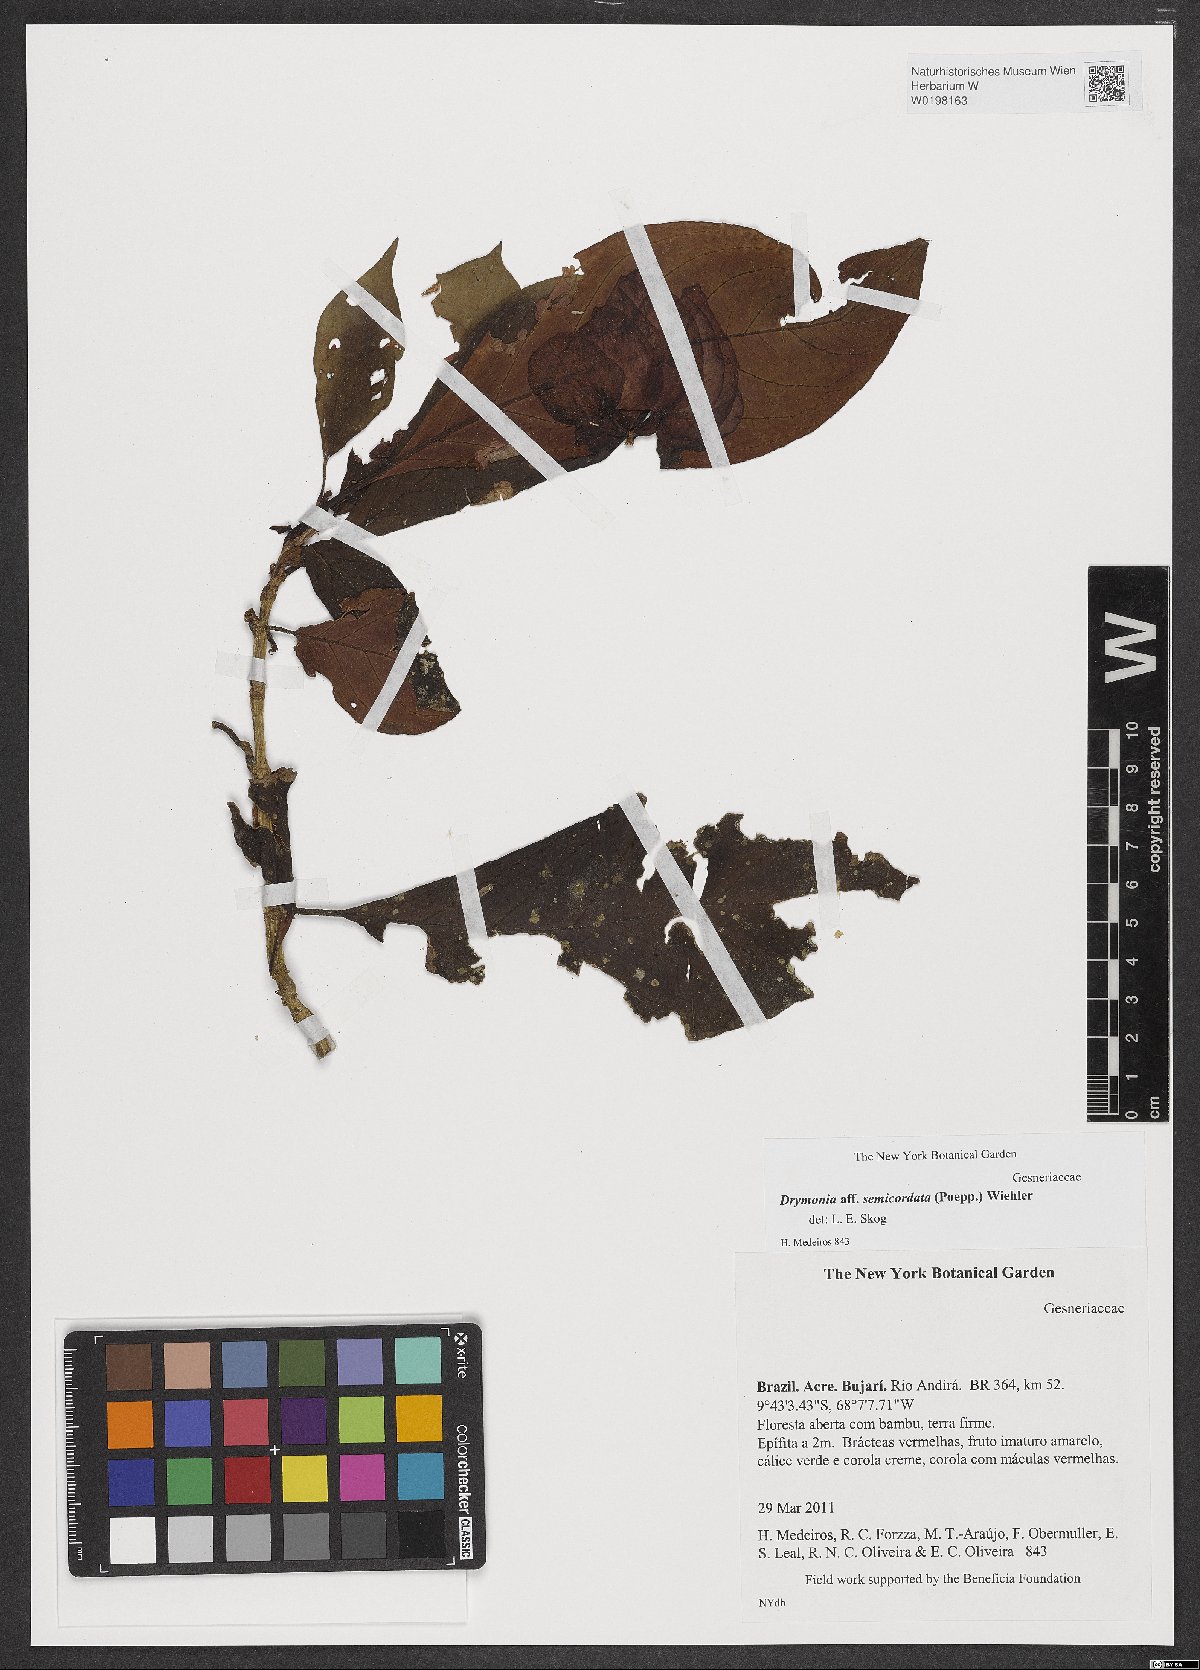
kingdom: Plantae
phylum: Tracheophyta
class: Magnoliopsida
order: Lamiales
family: Gesneriaceae
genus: Drymonia
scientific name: Drymonia semicordata
